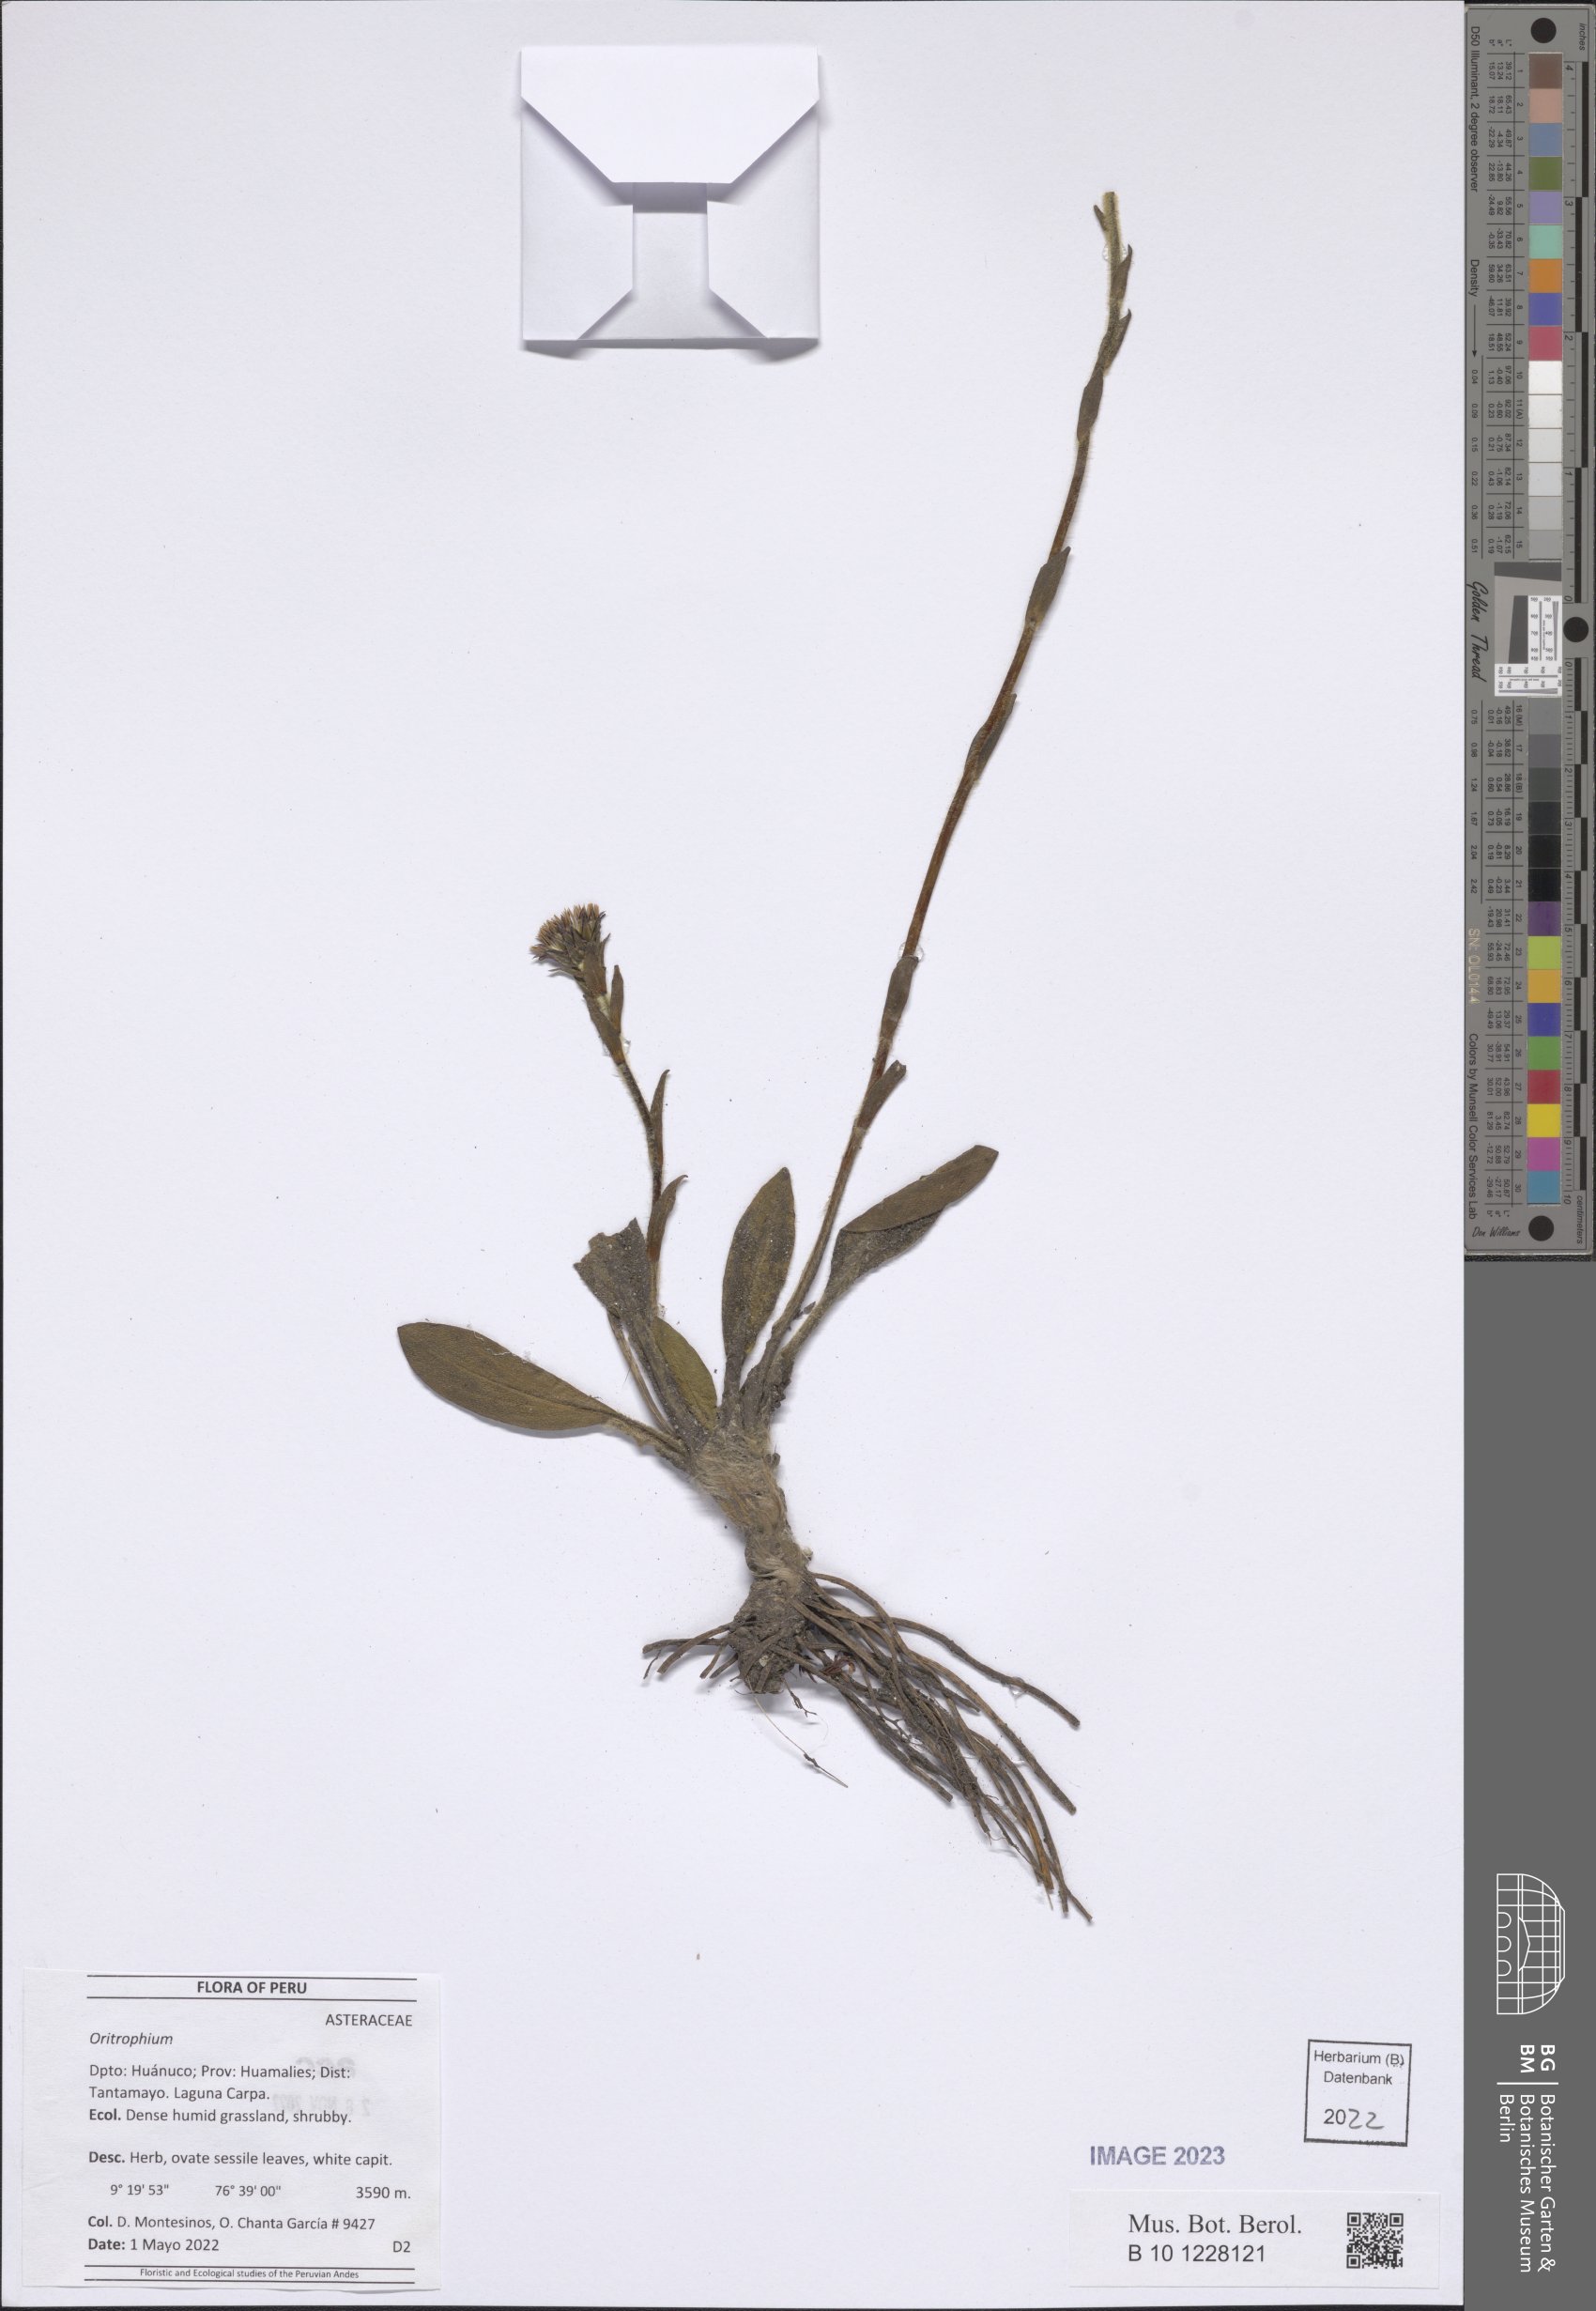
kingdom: Plantae
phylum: Tracheophyta
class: Magnoliopsida
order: Asterales
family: Asteraceae
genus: Oritrophium
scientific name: Oritrophium
